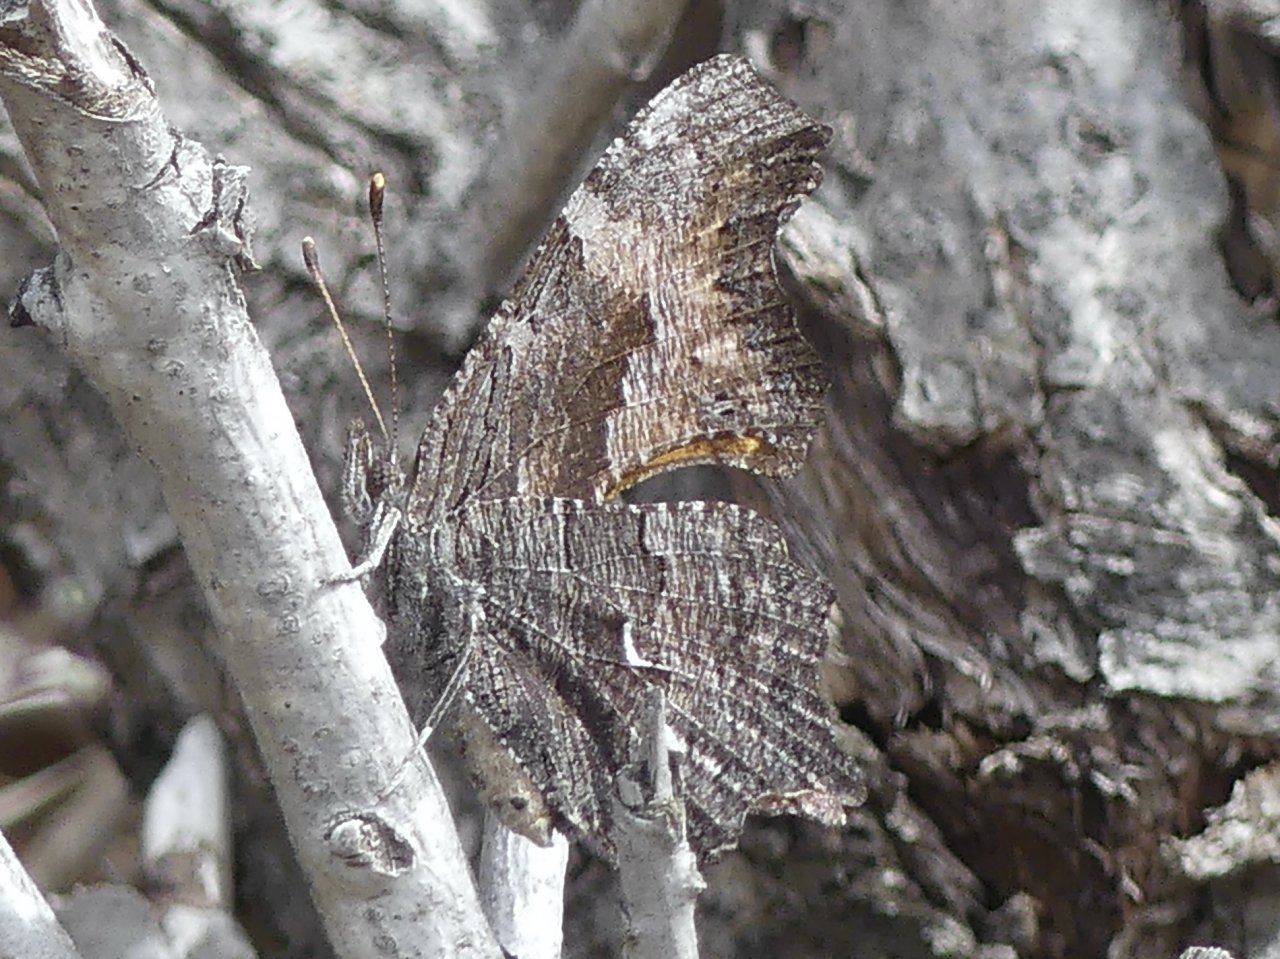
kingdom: Animalia
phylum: Arthropoda
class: Insecta
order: Lepidoptera
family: Nymphalidae
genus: Polygonia
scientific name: Polygonia faunus
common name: Green Comma
